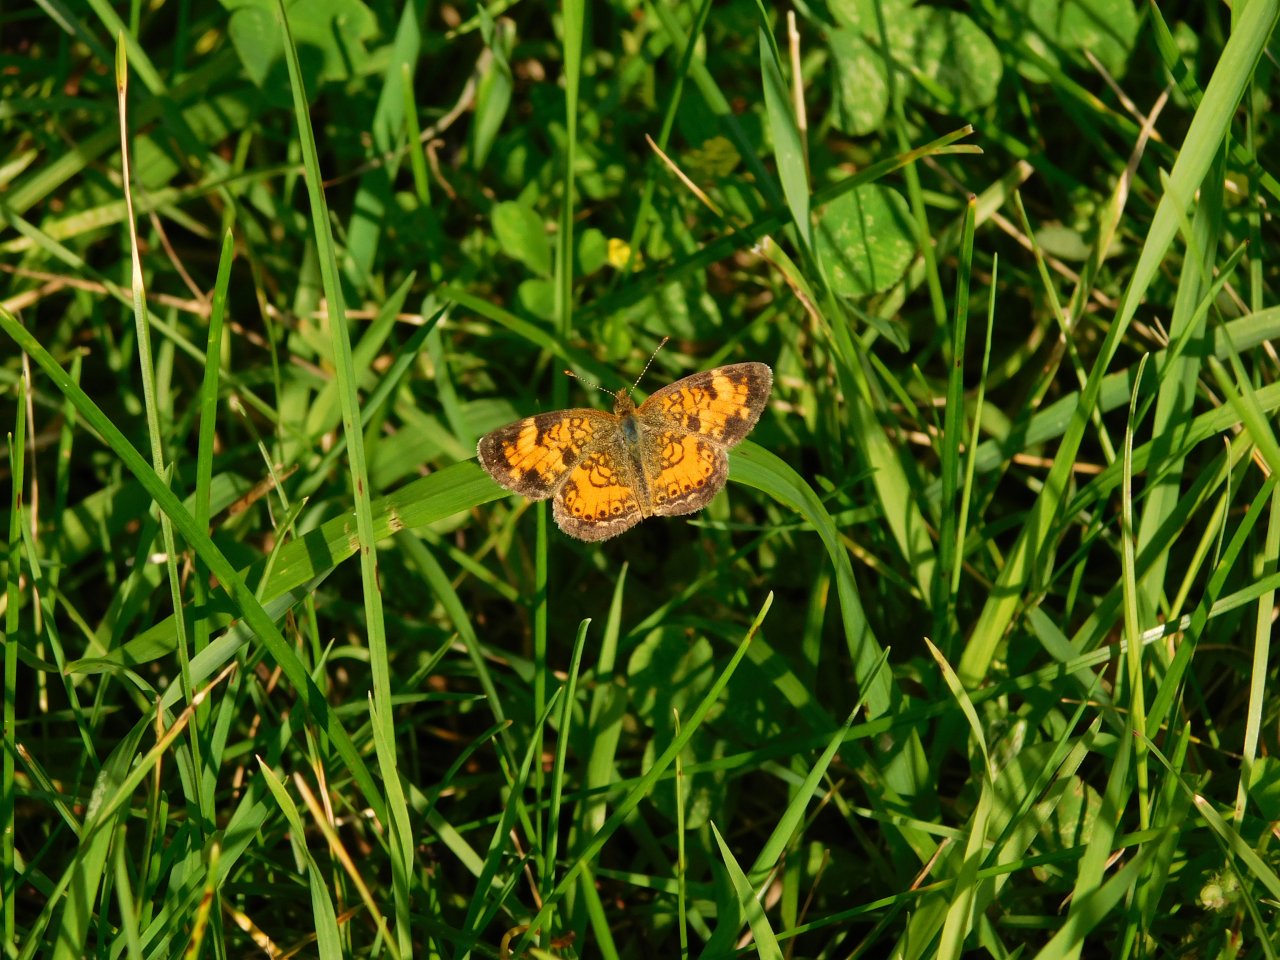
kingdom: Animalia
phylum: Arthropoda
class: Insecta
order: Lepidoptera
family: Nymphalidae
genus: Phyciodes
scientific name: Phyciodes tharos
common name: Northern Crescent
